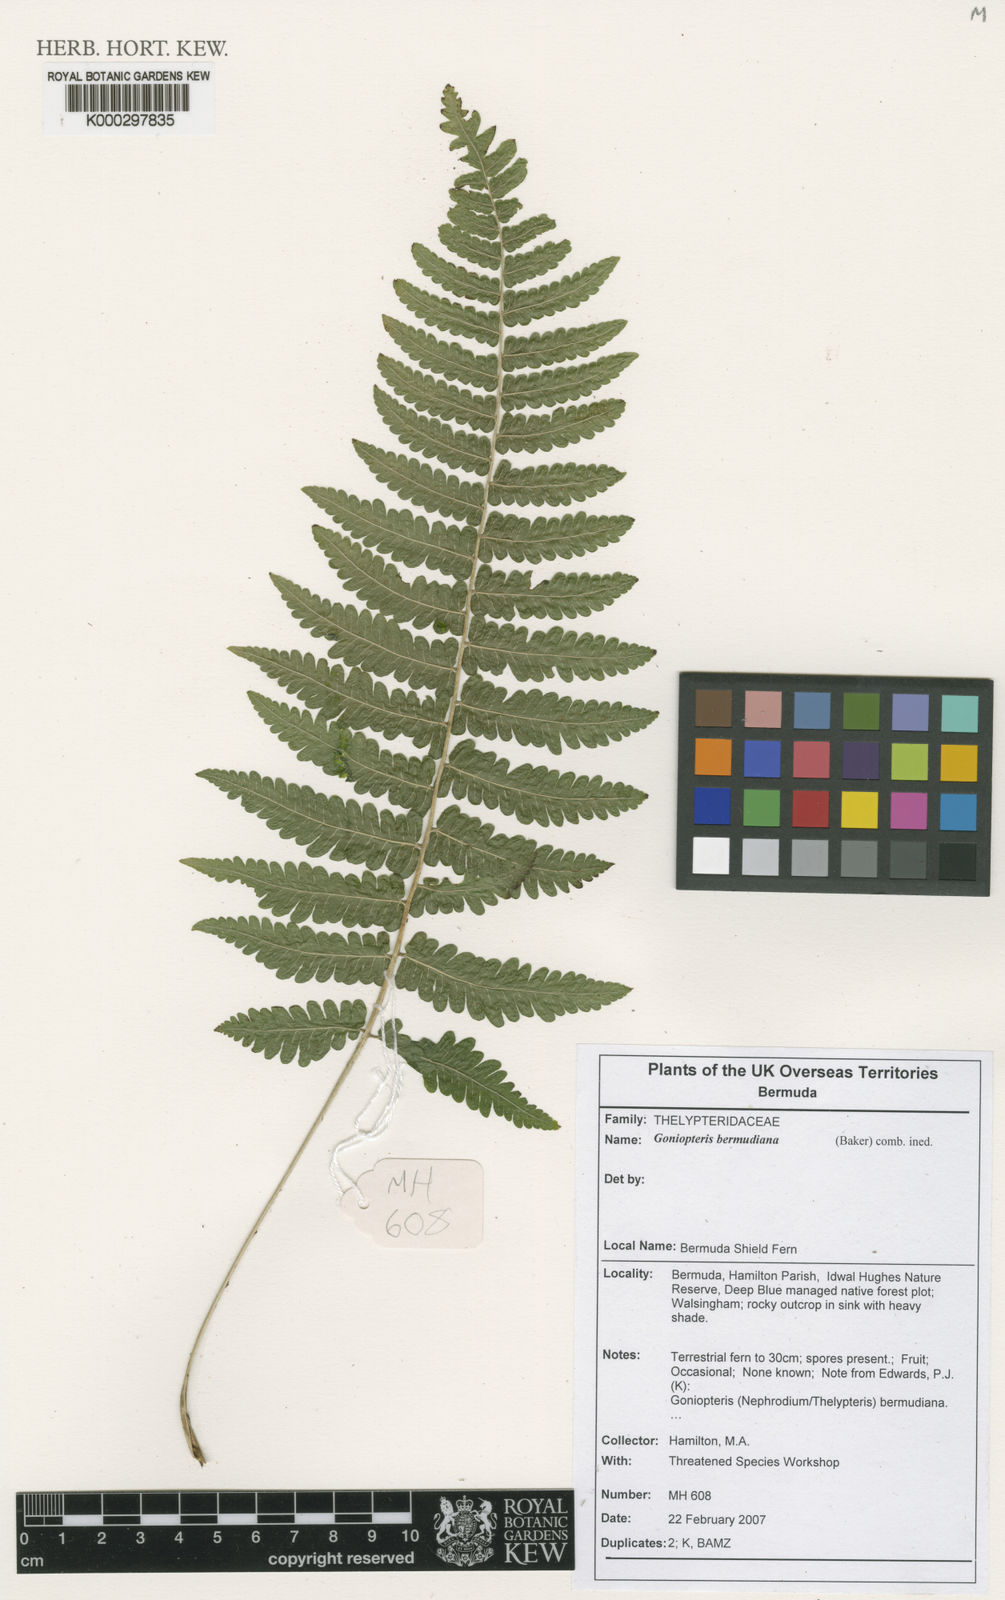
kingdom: Plantae
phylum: Tracheophyta
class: Polypodiopsida
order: Polypodiales
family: Thelypteridaceae
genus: Cyclosorus
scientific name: Cyclosorus
